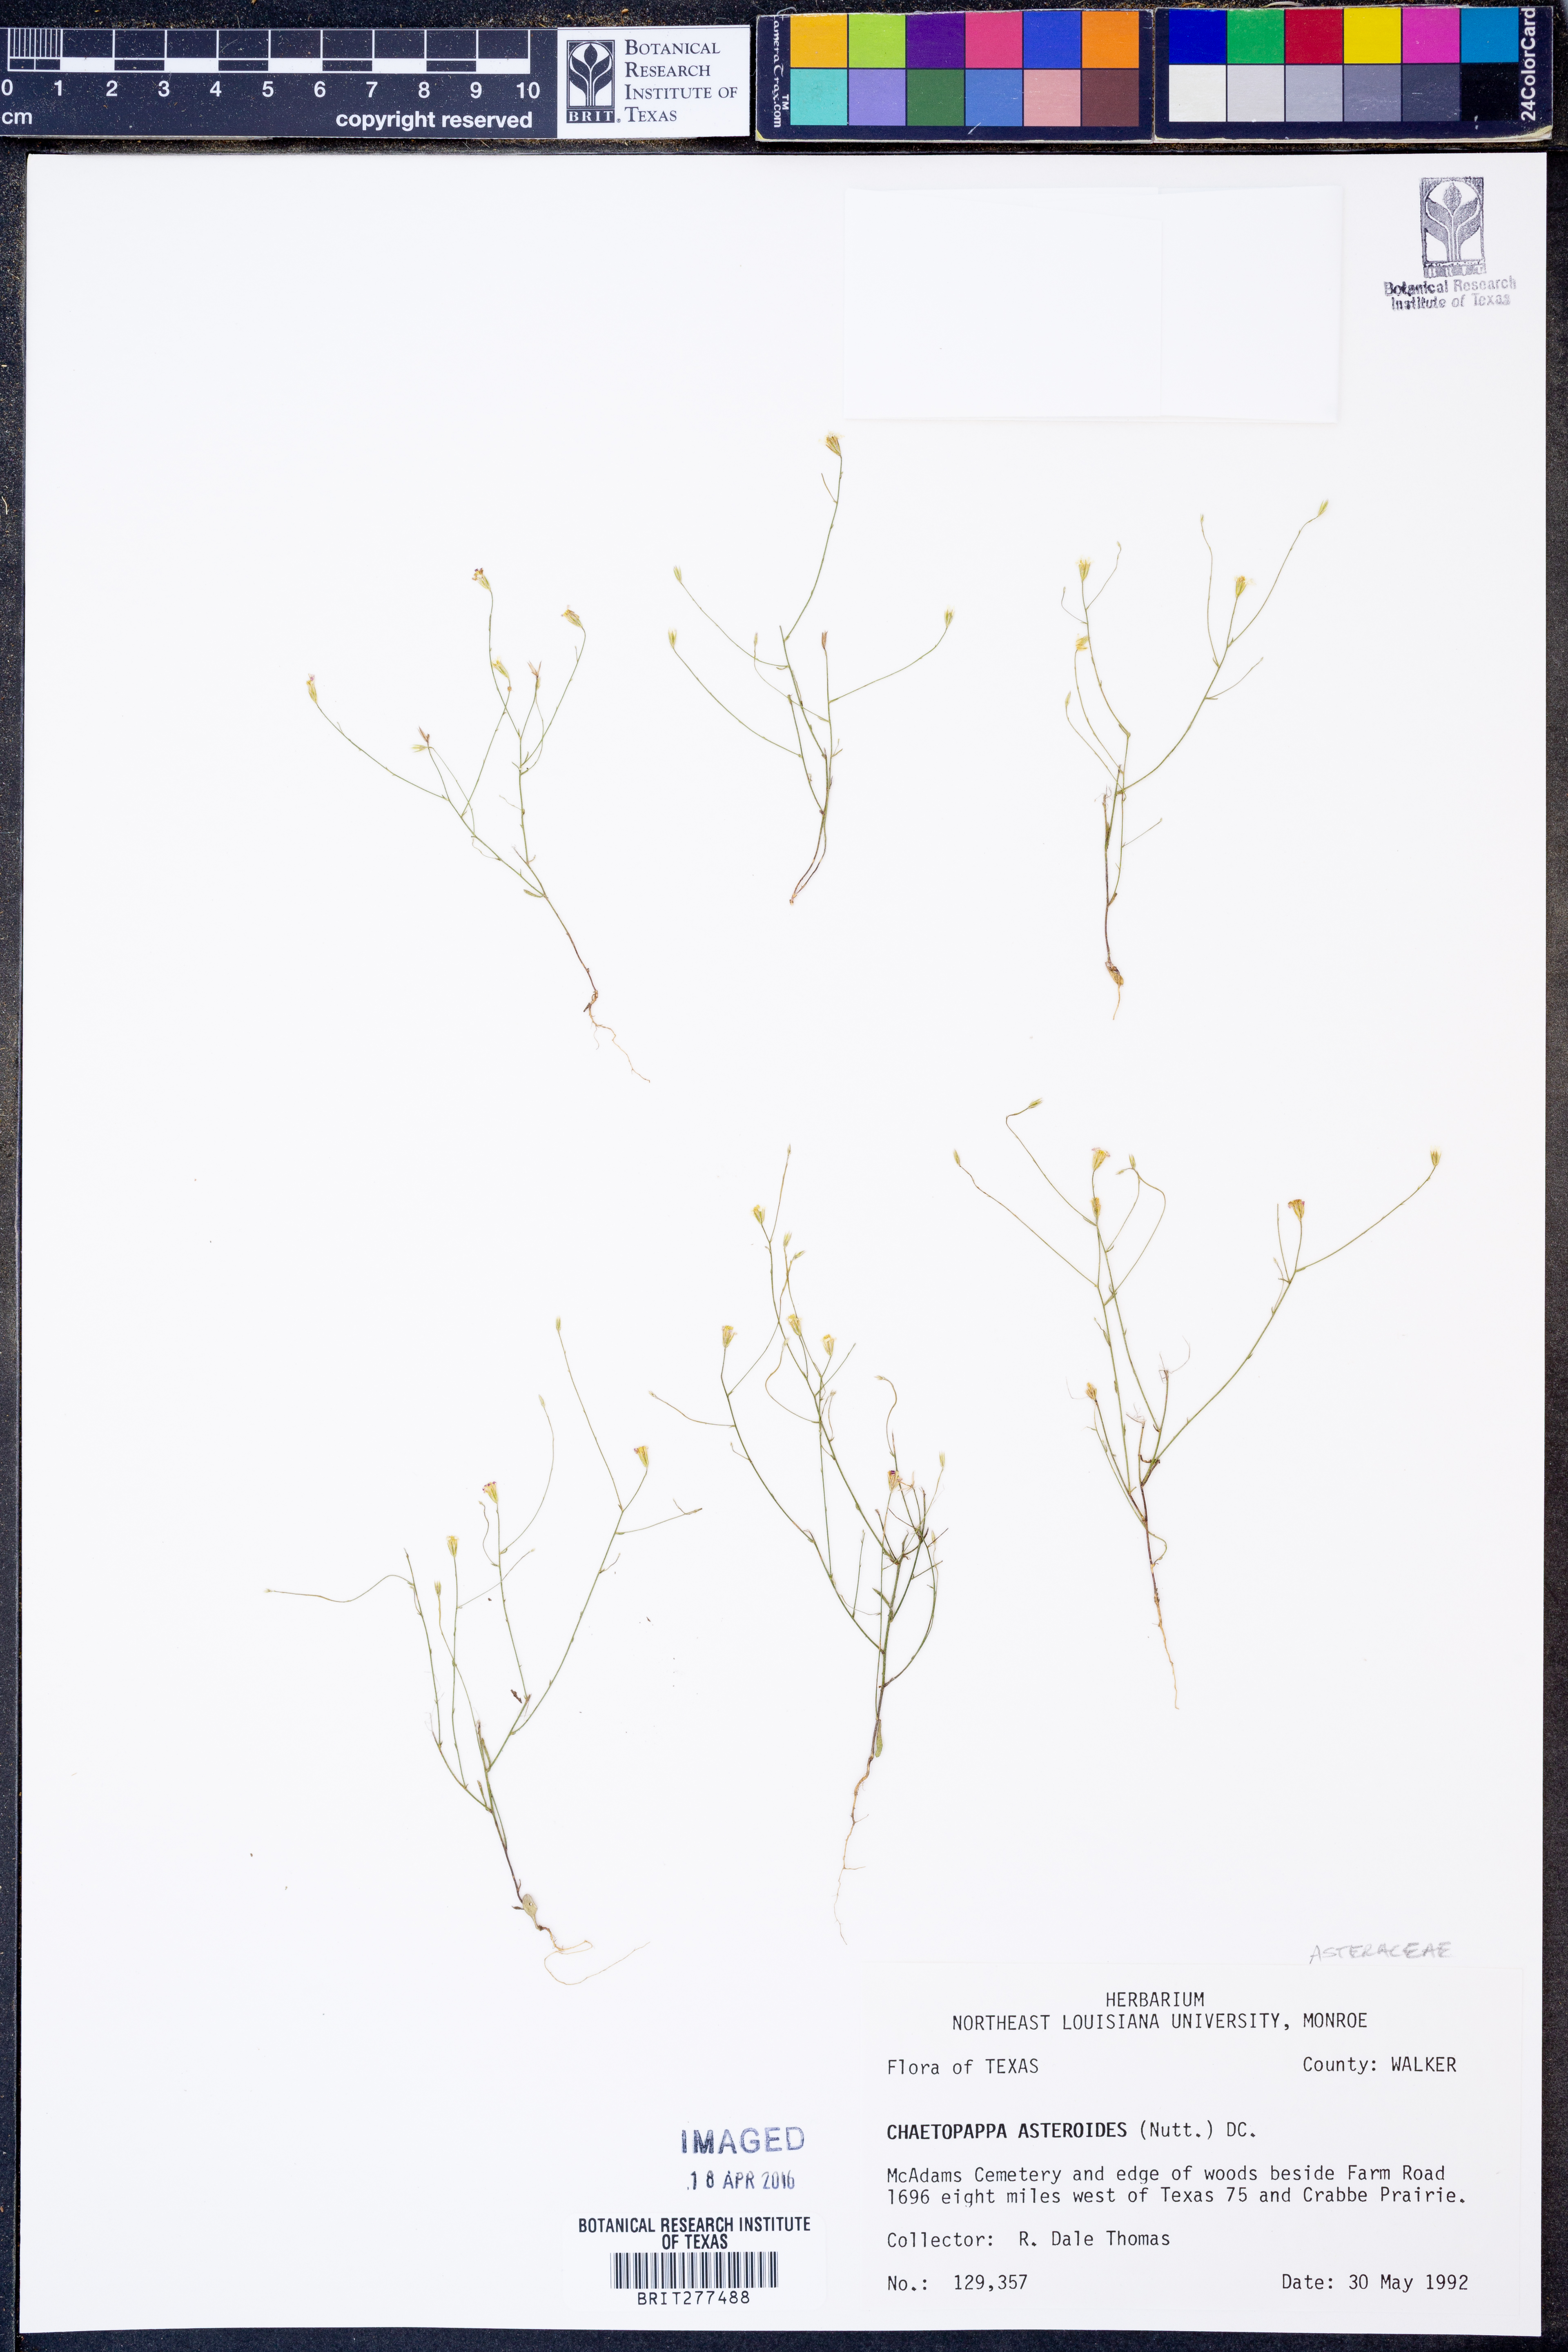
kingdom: Plantae
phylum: Tracheophyta
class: Magnoliopsida
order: Asterales
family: Asteraceae
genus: Chaetopappa
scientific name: Chaetopappa asteroides
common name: Tiny lazy daisy
